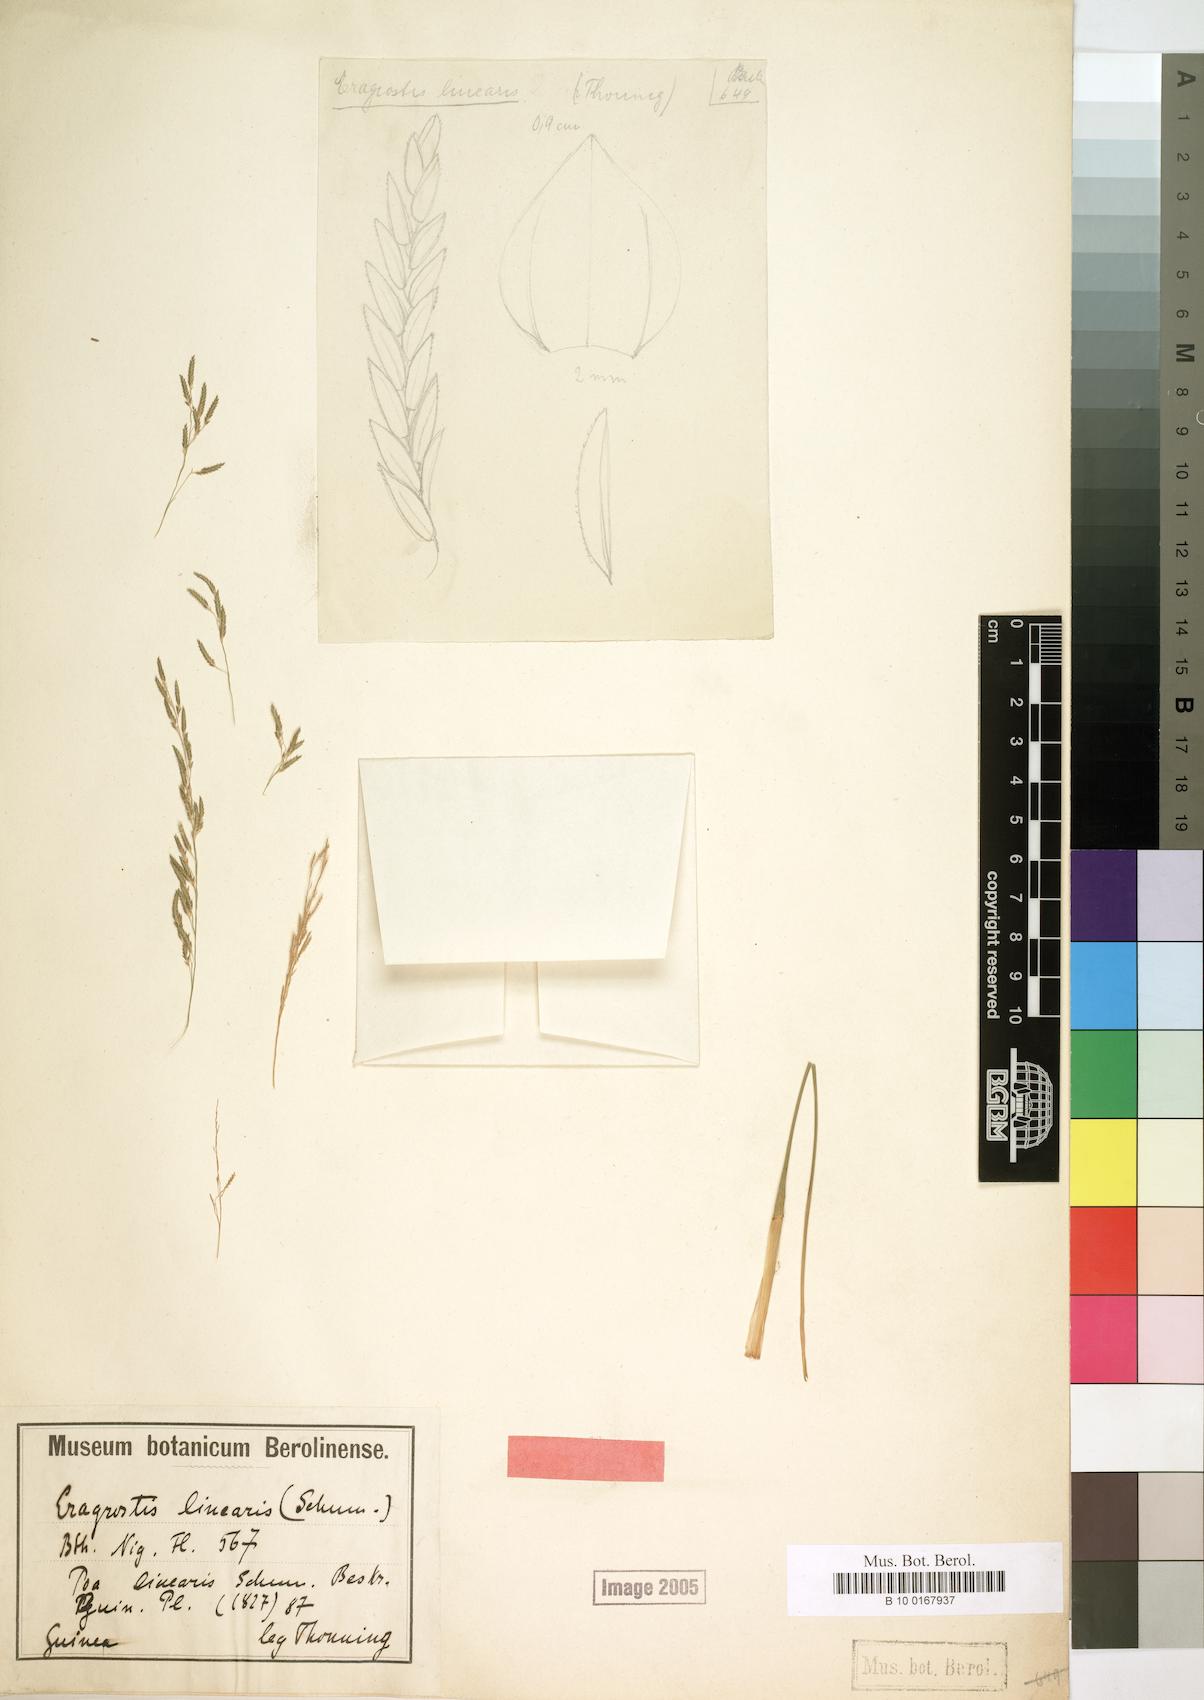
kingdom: Plantae
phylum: Tracheophyta
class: Liliopsida
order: Poales
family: Poaceae
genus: Eragrostis
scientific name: Eragrostis prolifera
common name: Dominican lovegrass
